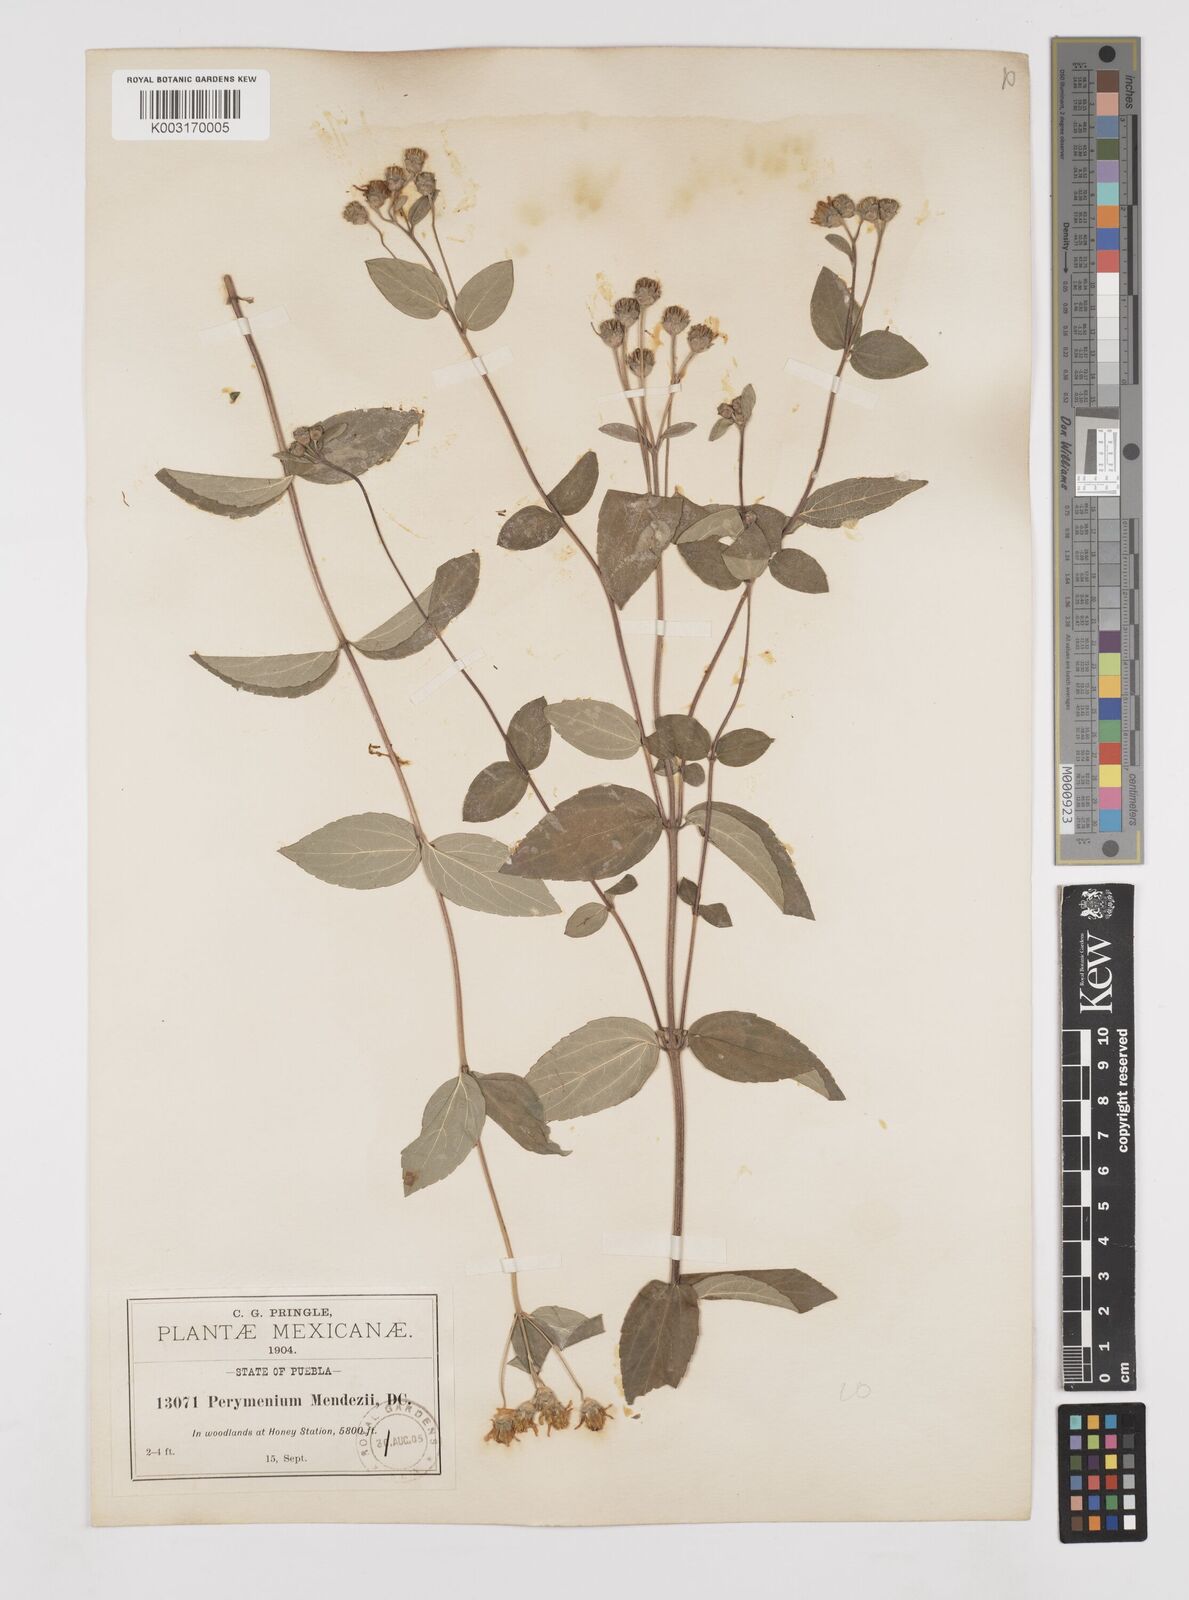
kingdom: Plantae
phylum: Tracheophyta
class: Magnoliopsida
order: Asterales
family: Asteraceae
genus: Perymenium
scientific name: Perymenium berlandieri
